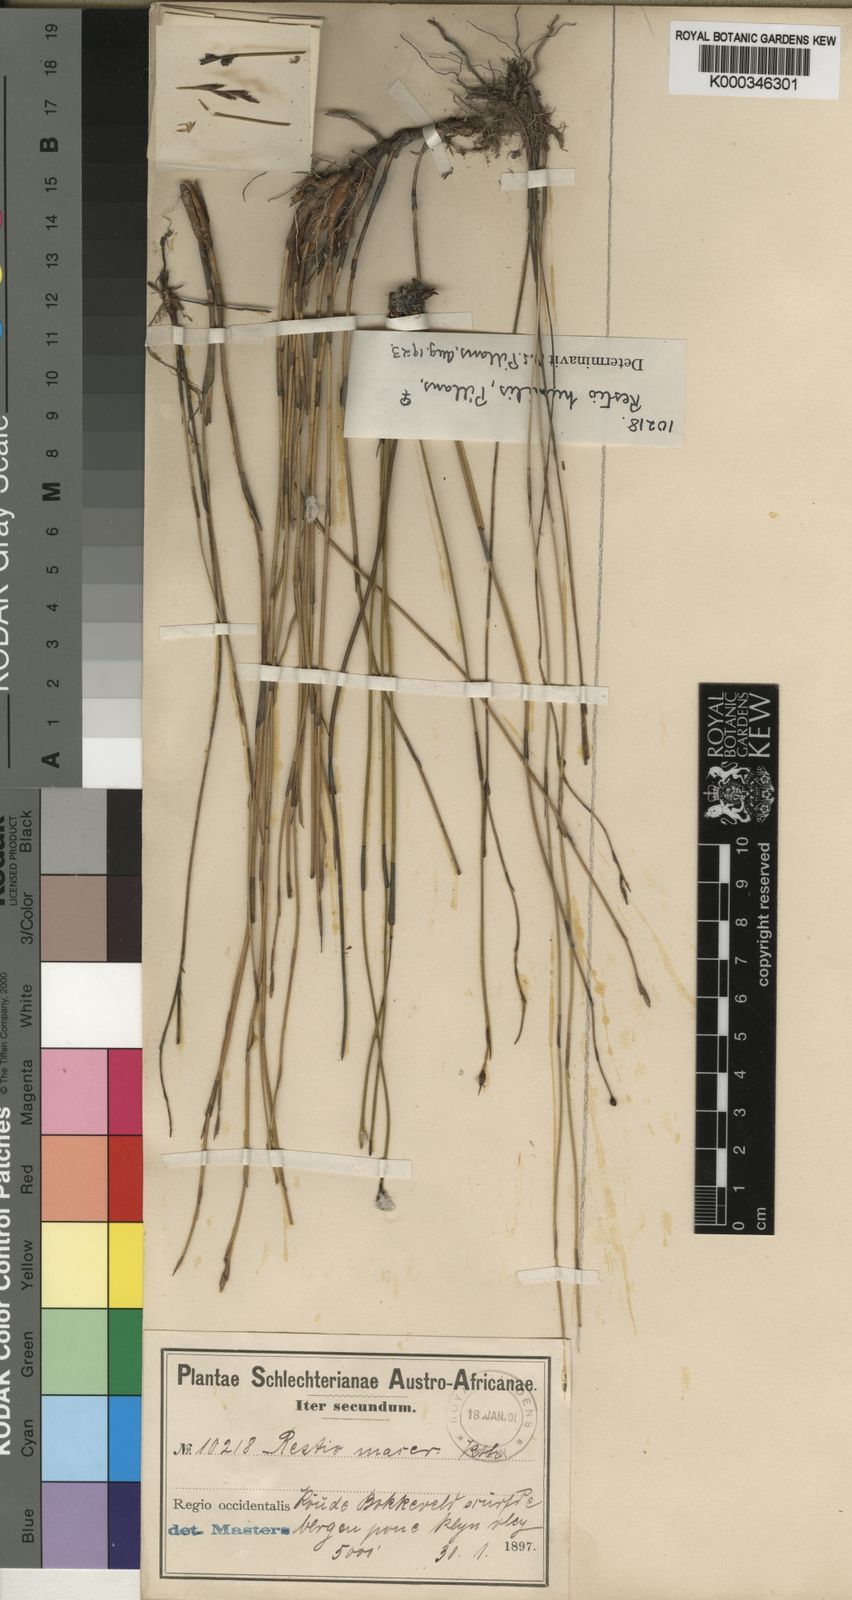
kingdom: Plantae
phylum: Tracheophyta
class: Liliopsida
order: Poales
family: Restionaceae
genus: Restio
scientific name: Restio wallichii
